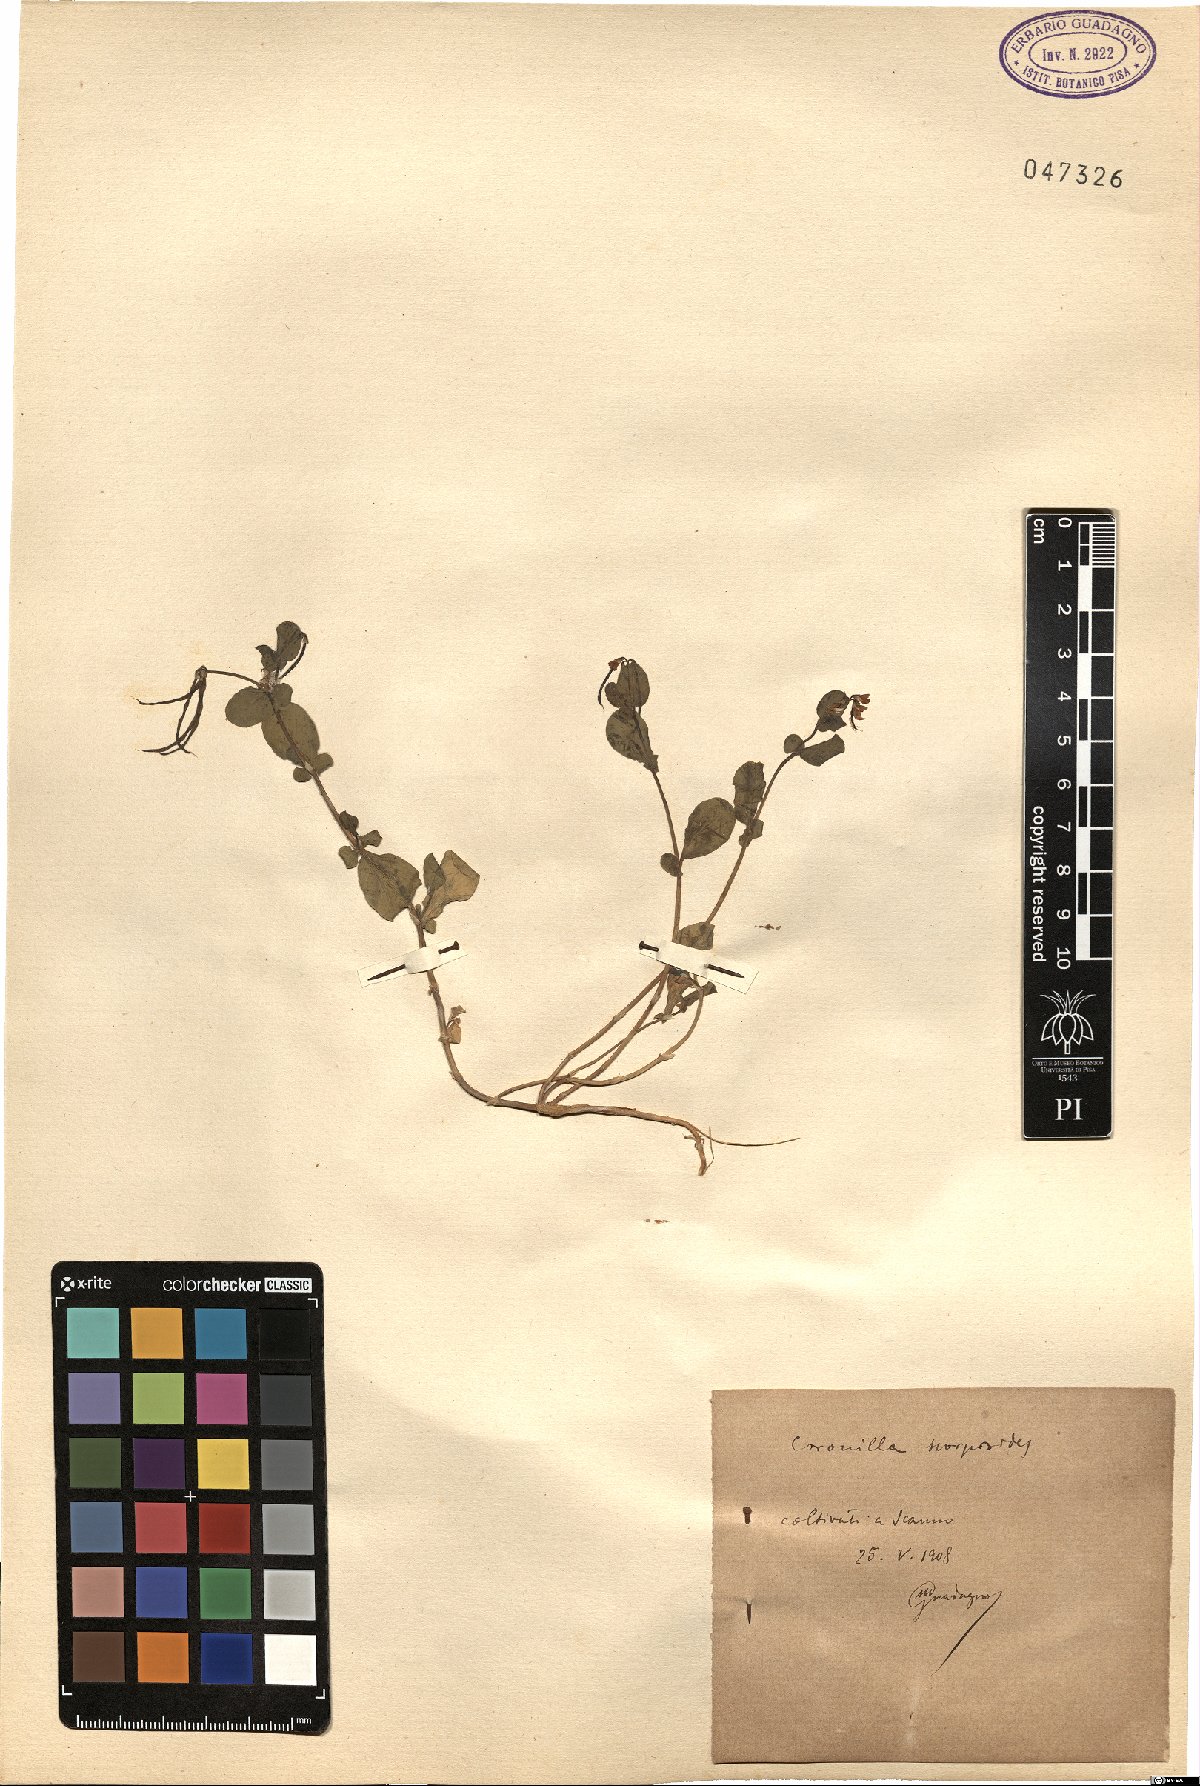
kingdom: Plantae
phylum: Tracheophyta
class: Magnoliopsida
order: Fabales
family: Fabaceae
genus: Coronilla
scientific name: Coronilla scorpioides
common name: Annual scorpion-vetch
